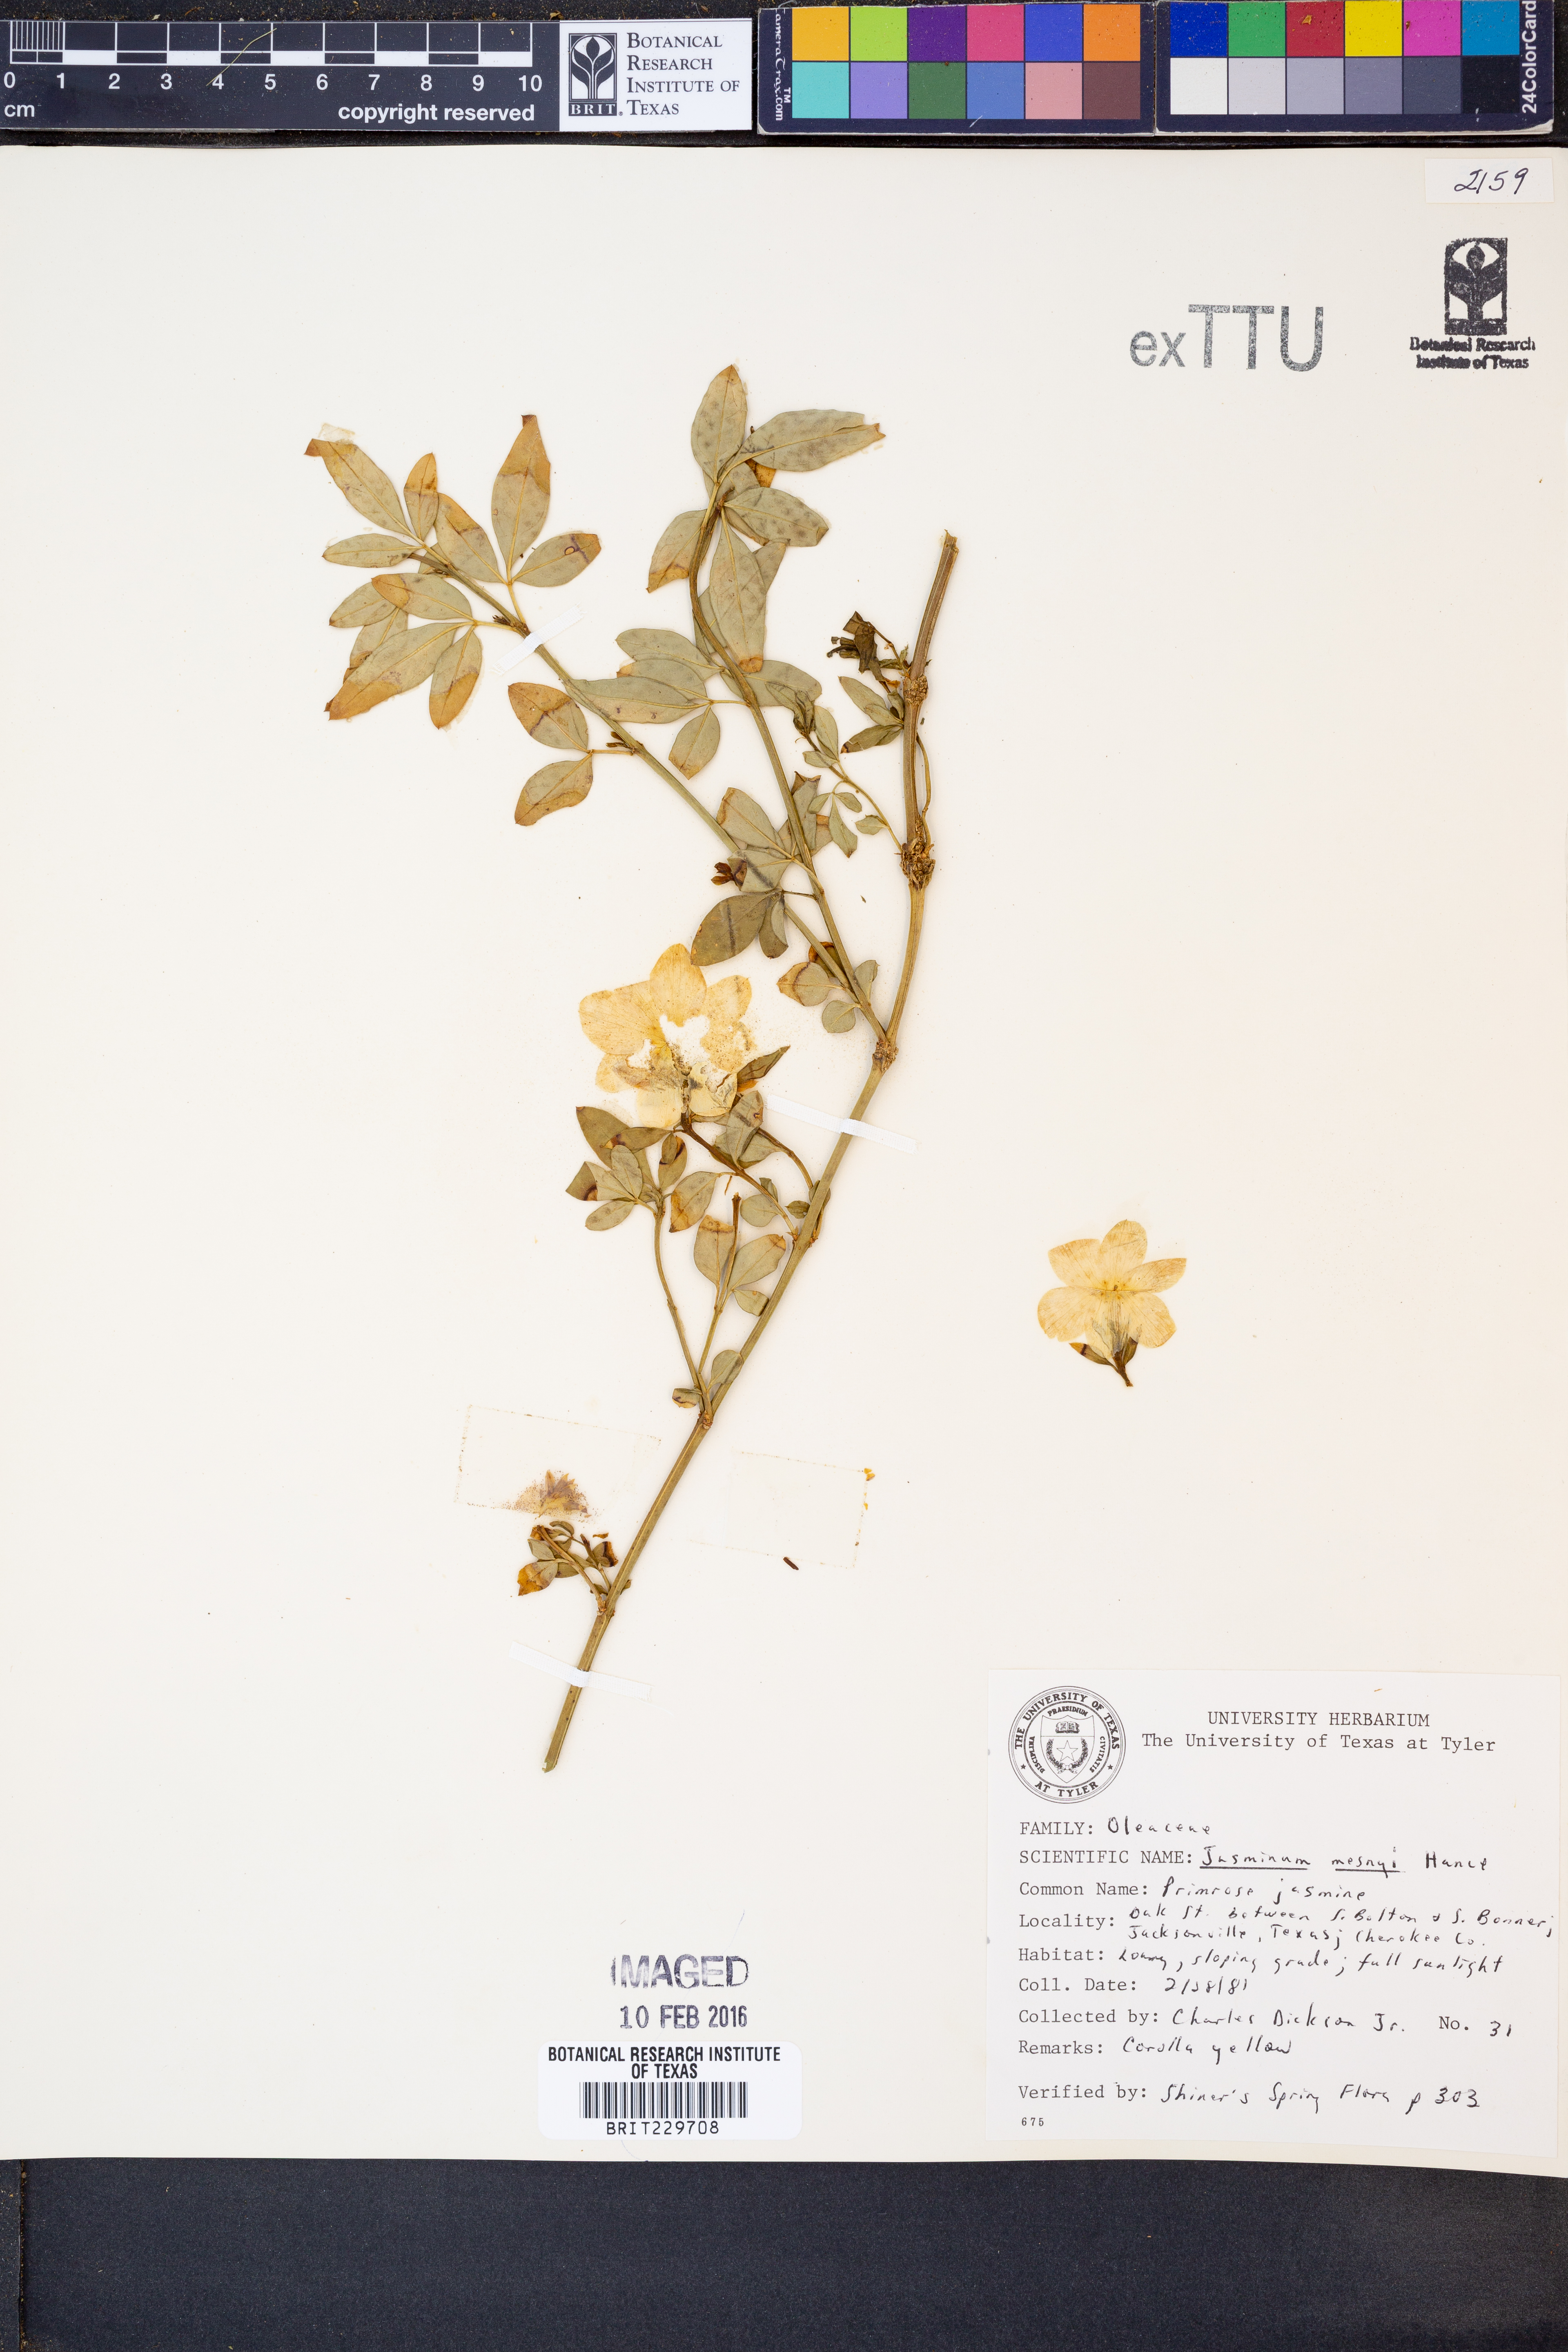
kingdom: Plantae
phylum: Tracheophyta
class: Magnoliopsida
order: Lamiales
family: Oleaceae
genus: Jasminum
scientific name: Jasminum mesnyi
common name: Japanese jasmine
